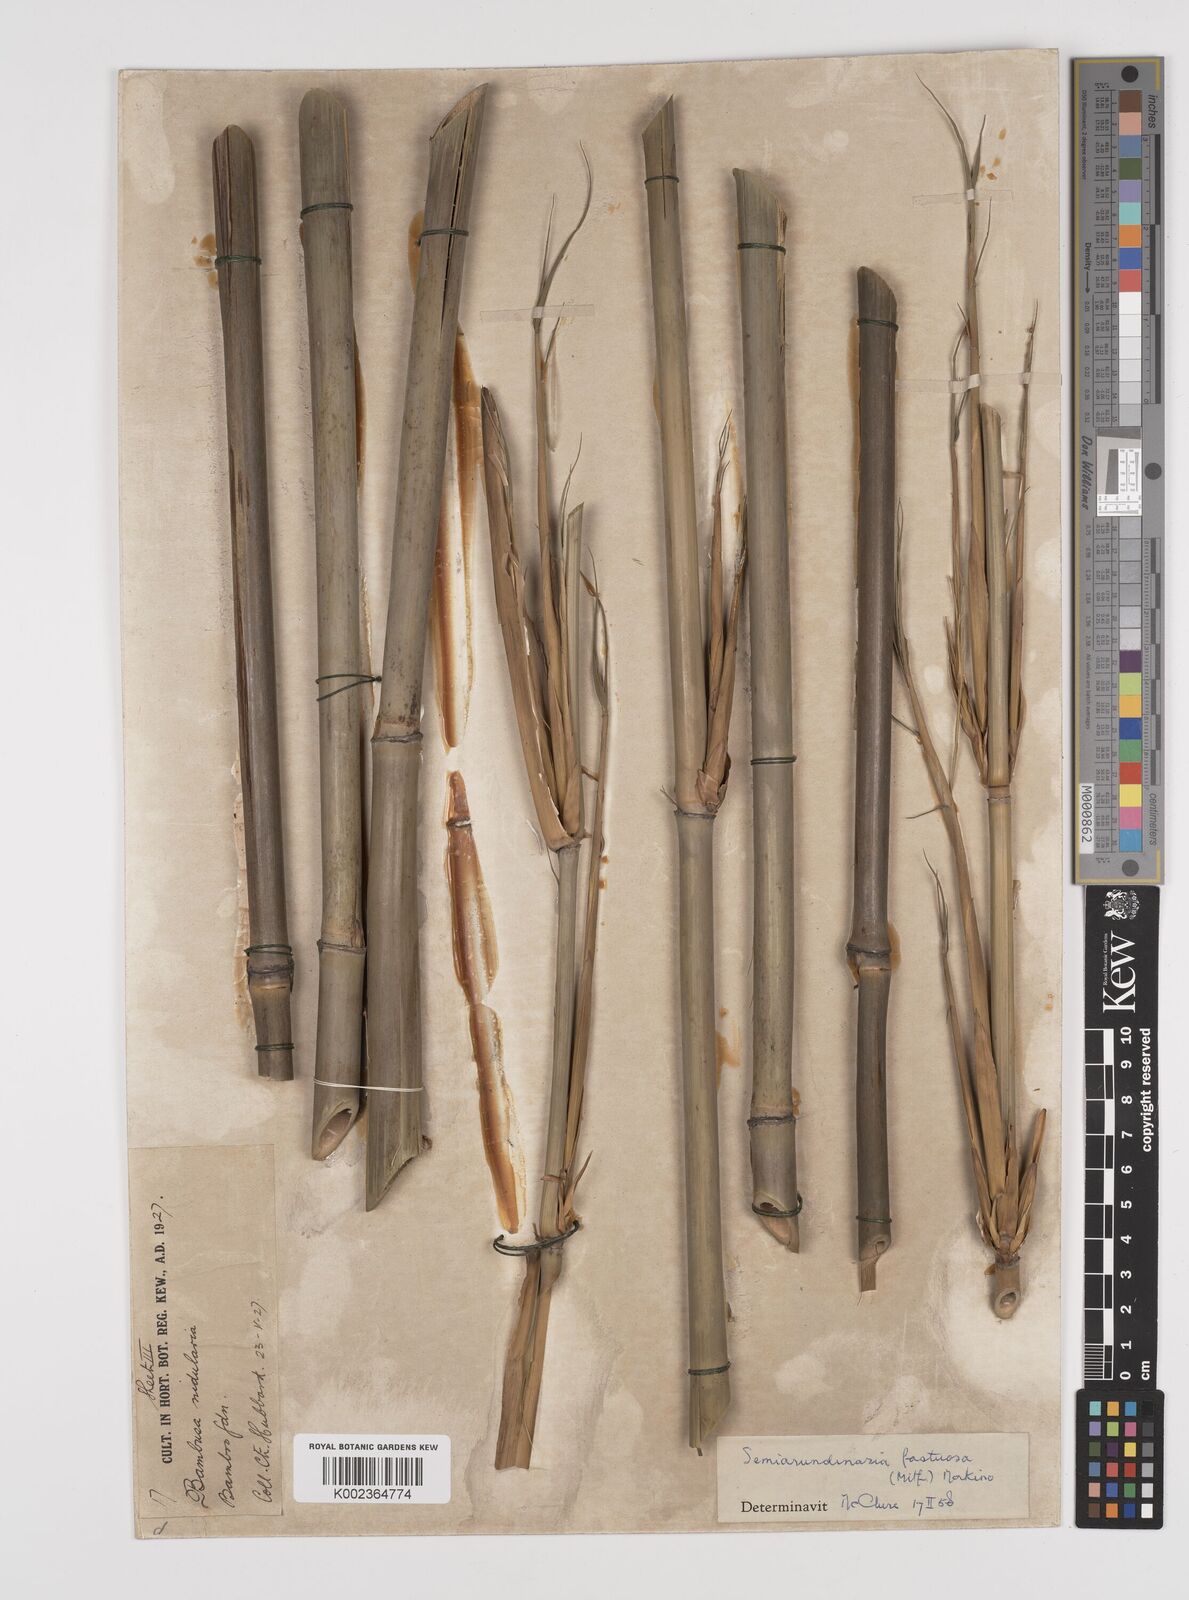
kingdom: Plantae
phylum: Tracheophyta
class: Liliopsida
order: Poales
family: Poaceae
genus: Semiarundinaria
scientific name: Semiarundinaria fastuosa
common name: Narihira bamboo
